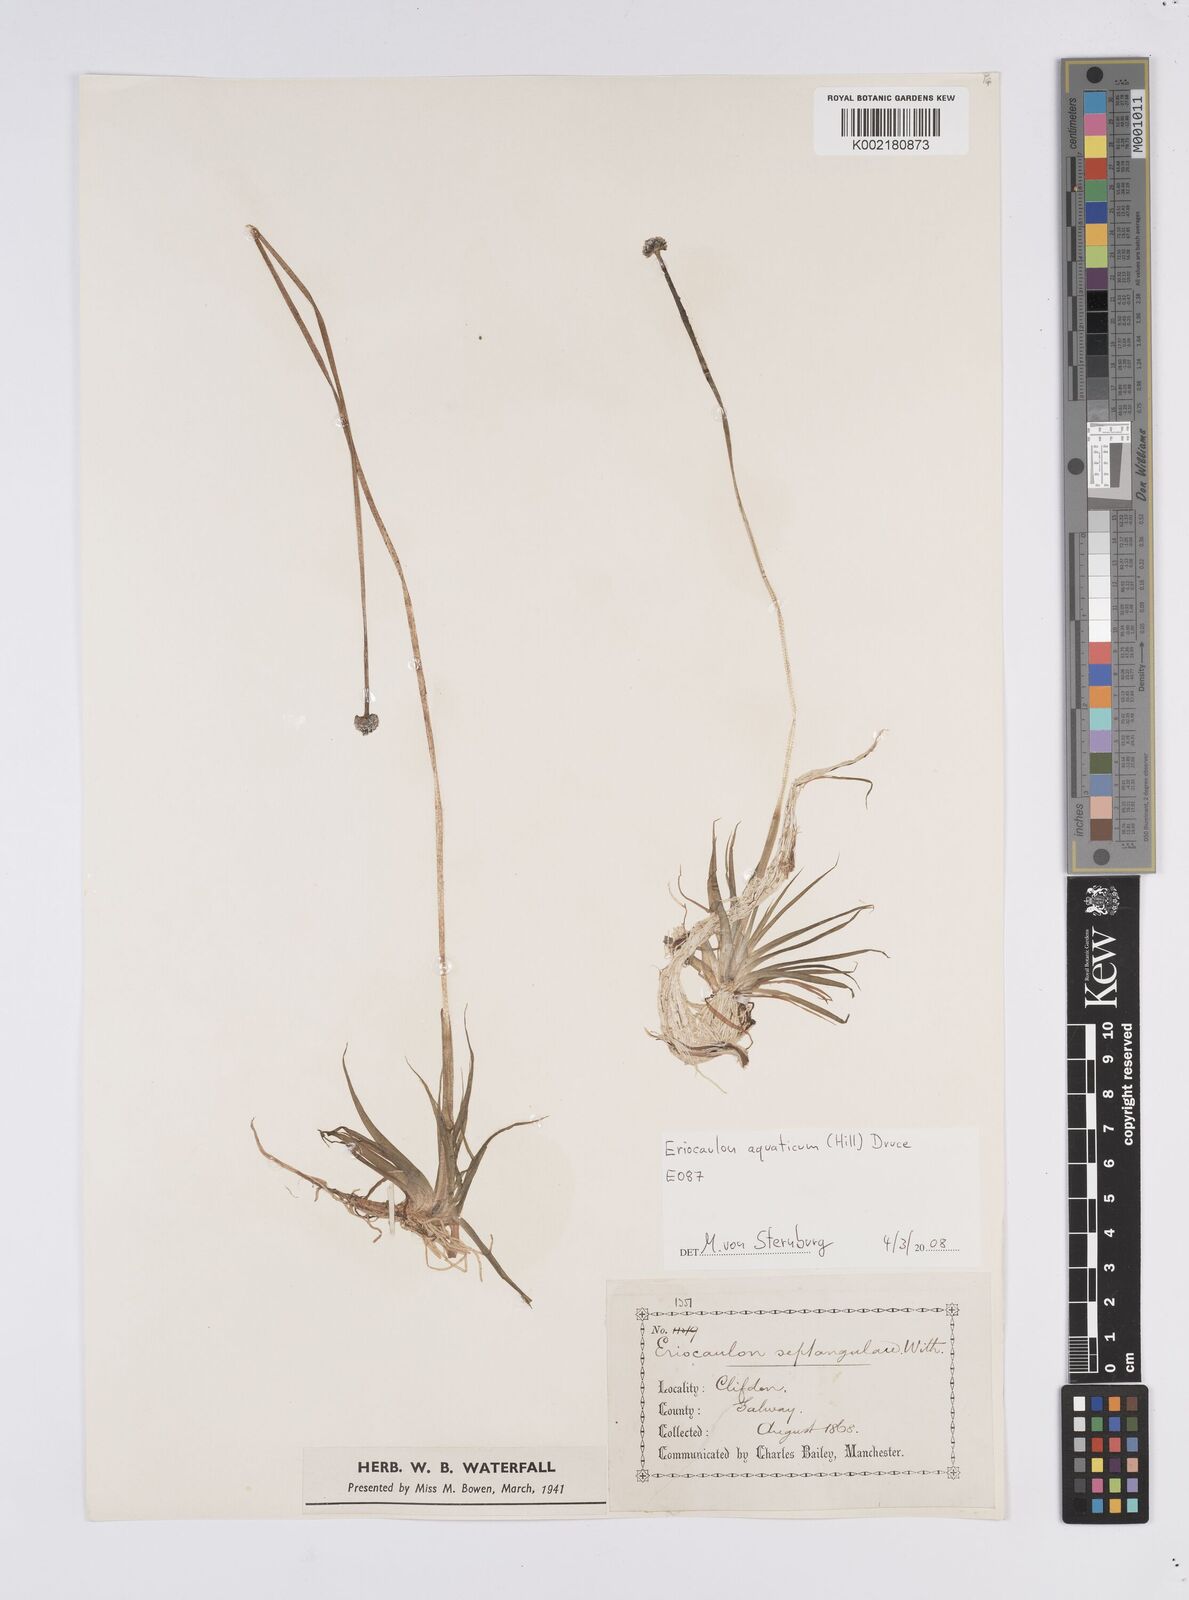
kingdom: Plantae
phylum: Tracheophyta
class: Liliopsida
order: Poales
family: Eriocaulaceae
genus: Eriocaulon
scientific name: Eriocaulon aquaticum
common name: Pipewort
